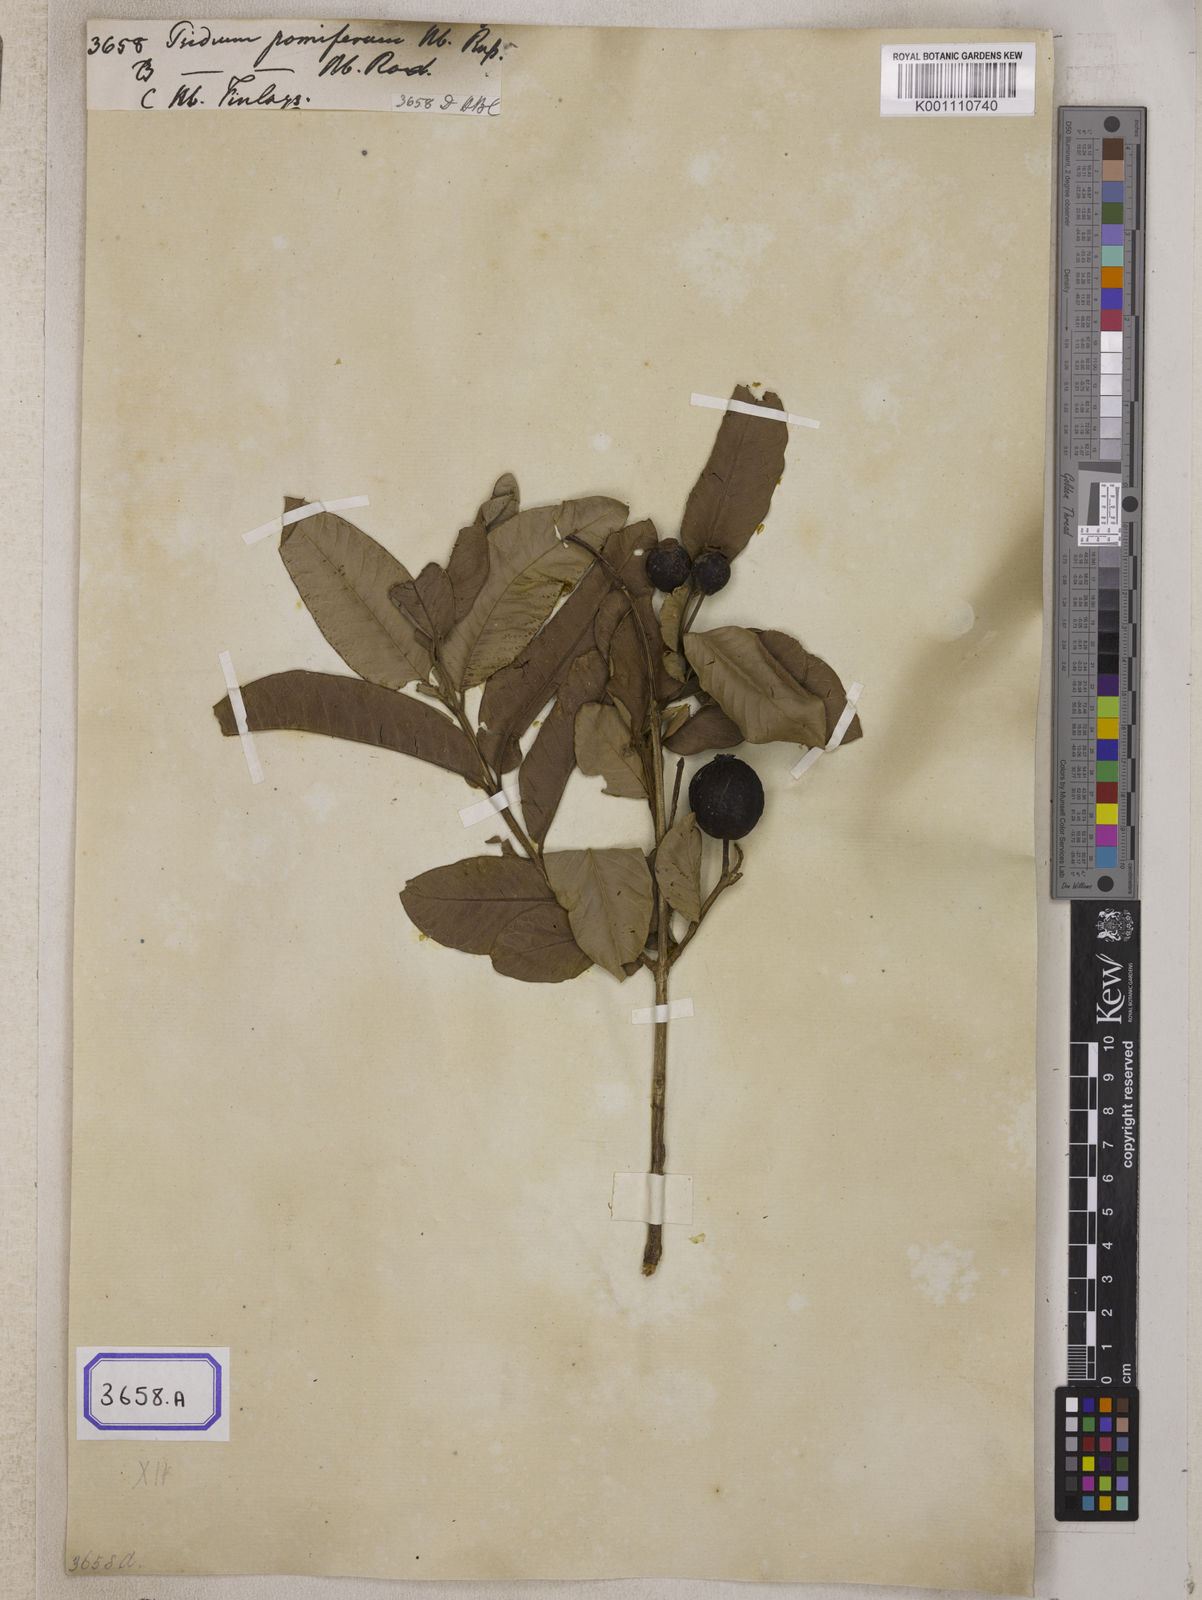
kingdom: Plantae
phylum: Tracheophyta
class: Magnoliopsida
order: Myrtales
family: Myrtaceae
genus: Psidium
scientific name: Psidium guajava
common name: Guava
